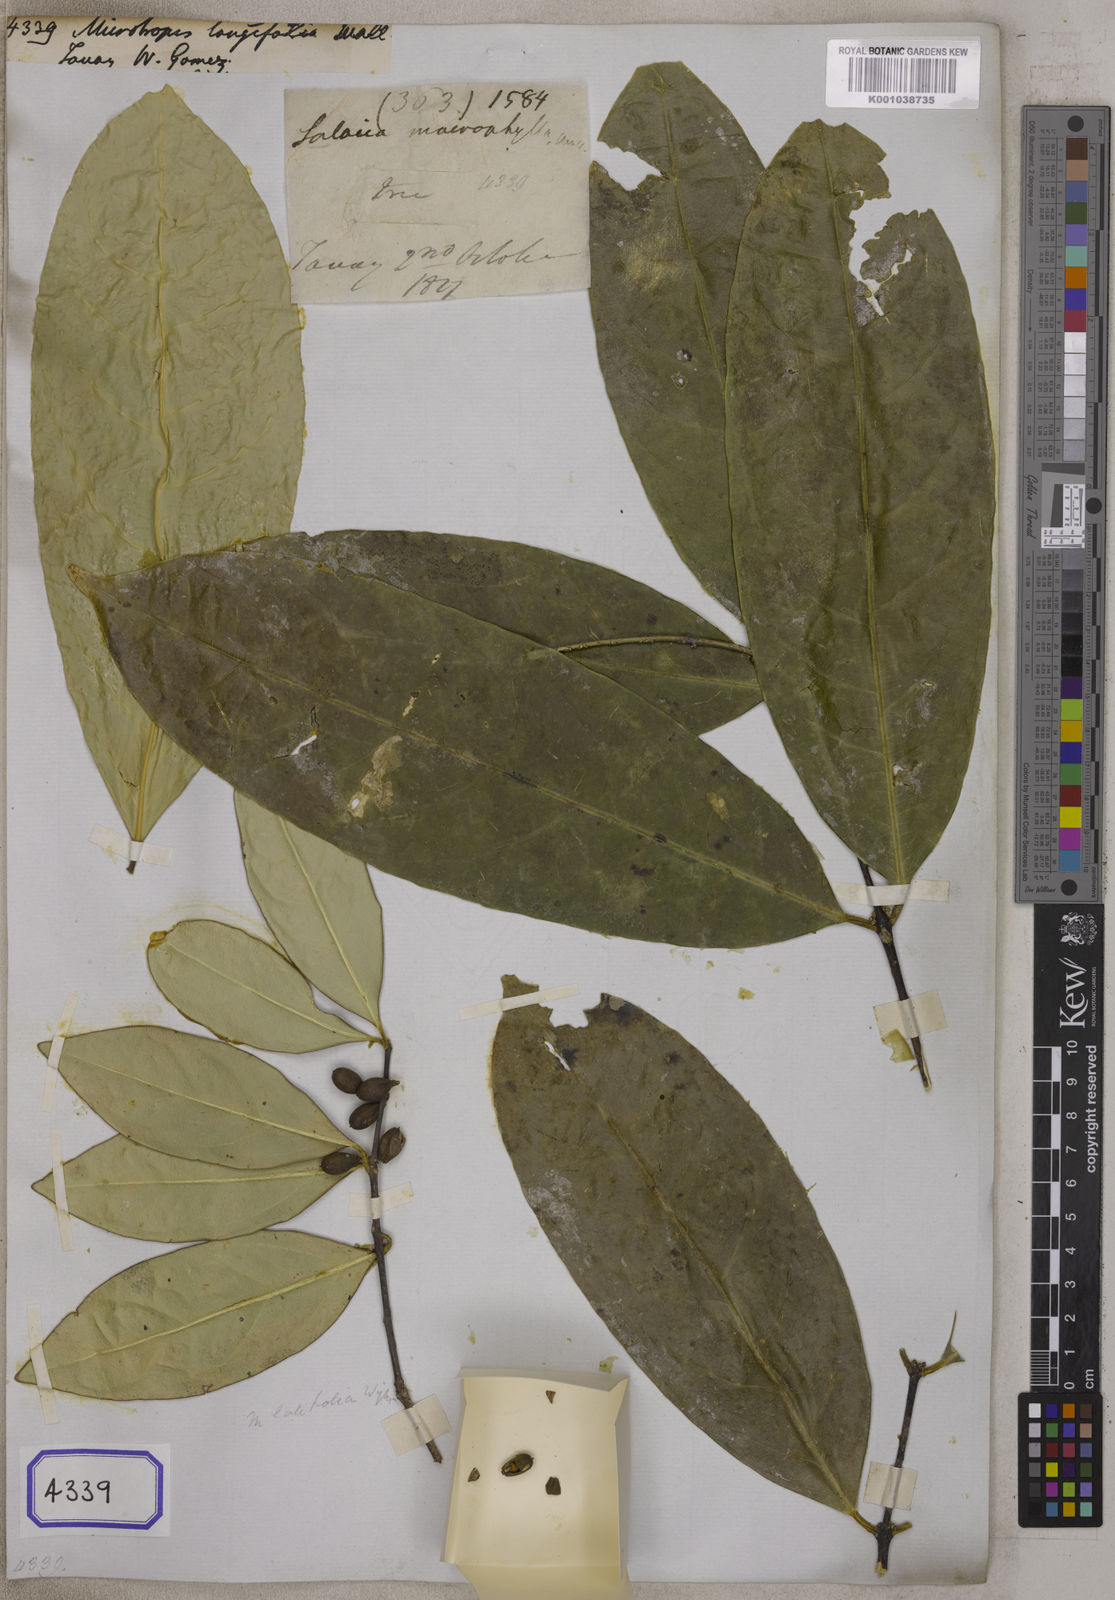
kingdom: Plantae
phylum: Tracheophyta
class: Magnoliopsida
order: Celastrales
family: Celastraceae
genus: Microtropis
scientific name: Microtropis
